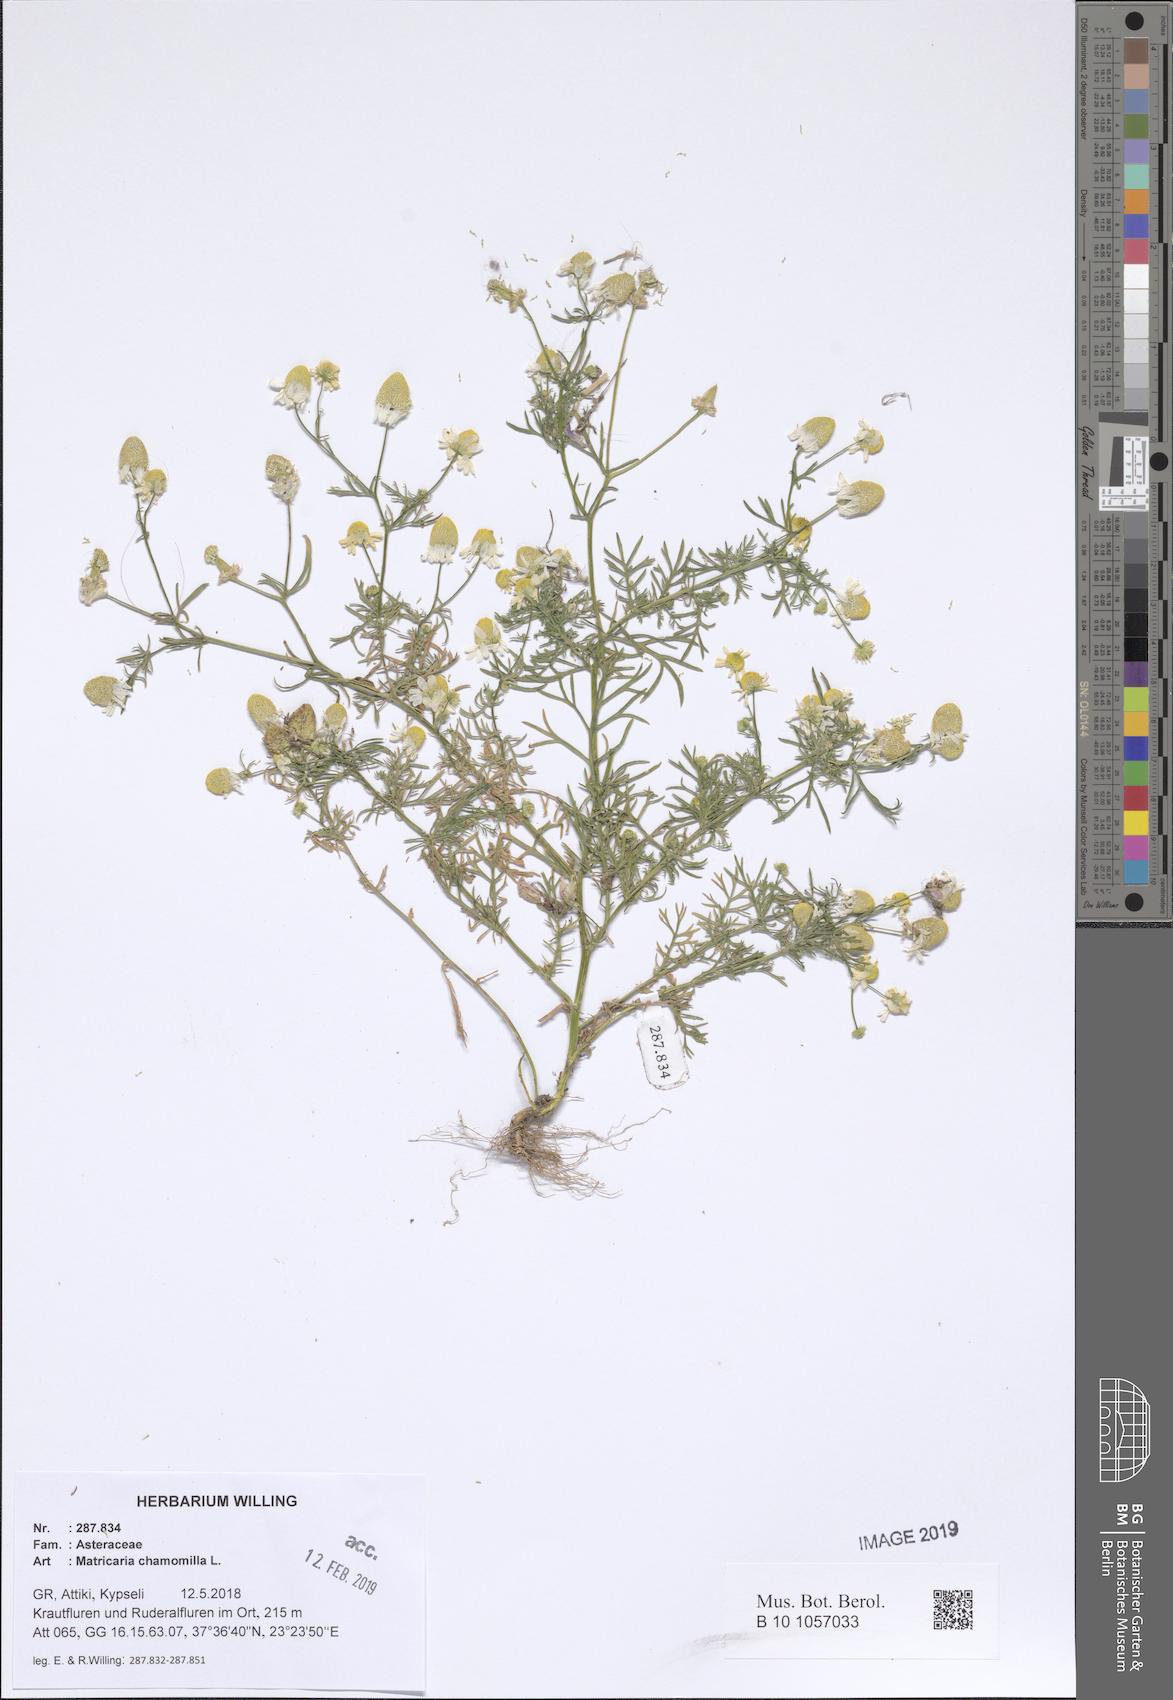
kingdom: Plantae
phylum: Tracheophyta
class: Magnoliopsida
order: Asterales
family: Asteraceae
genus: Matricaria
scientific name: Matricaria chamomilla
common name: Scented mayweed
